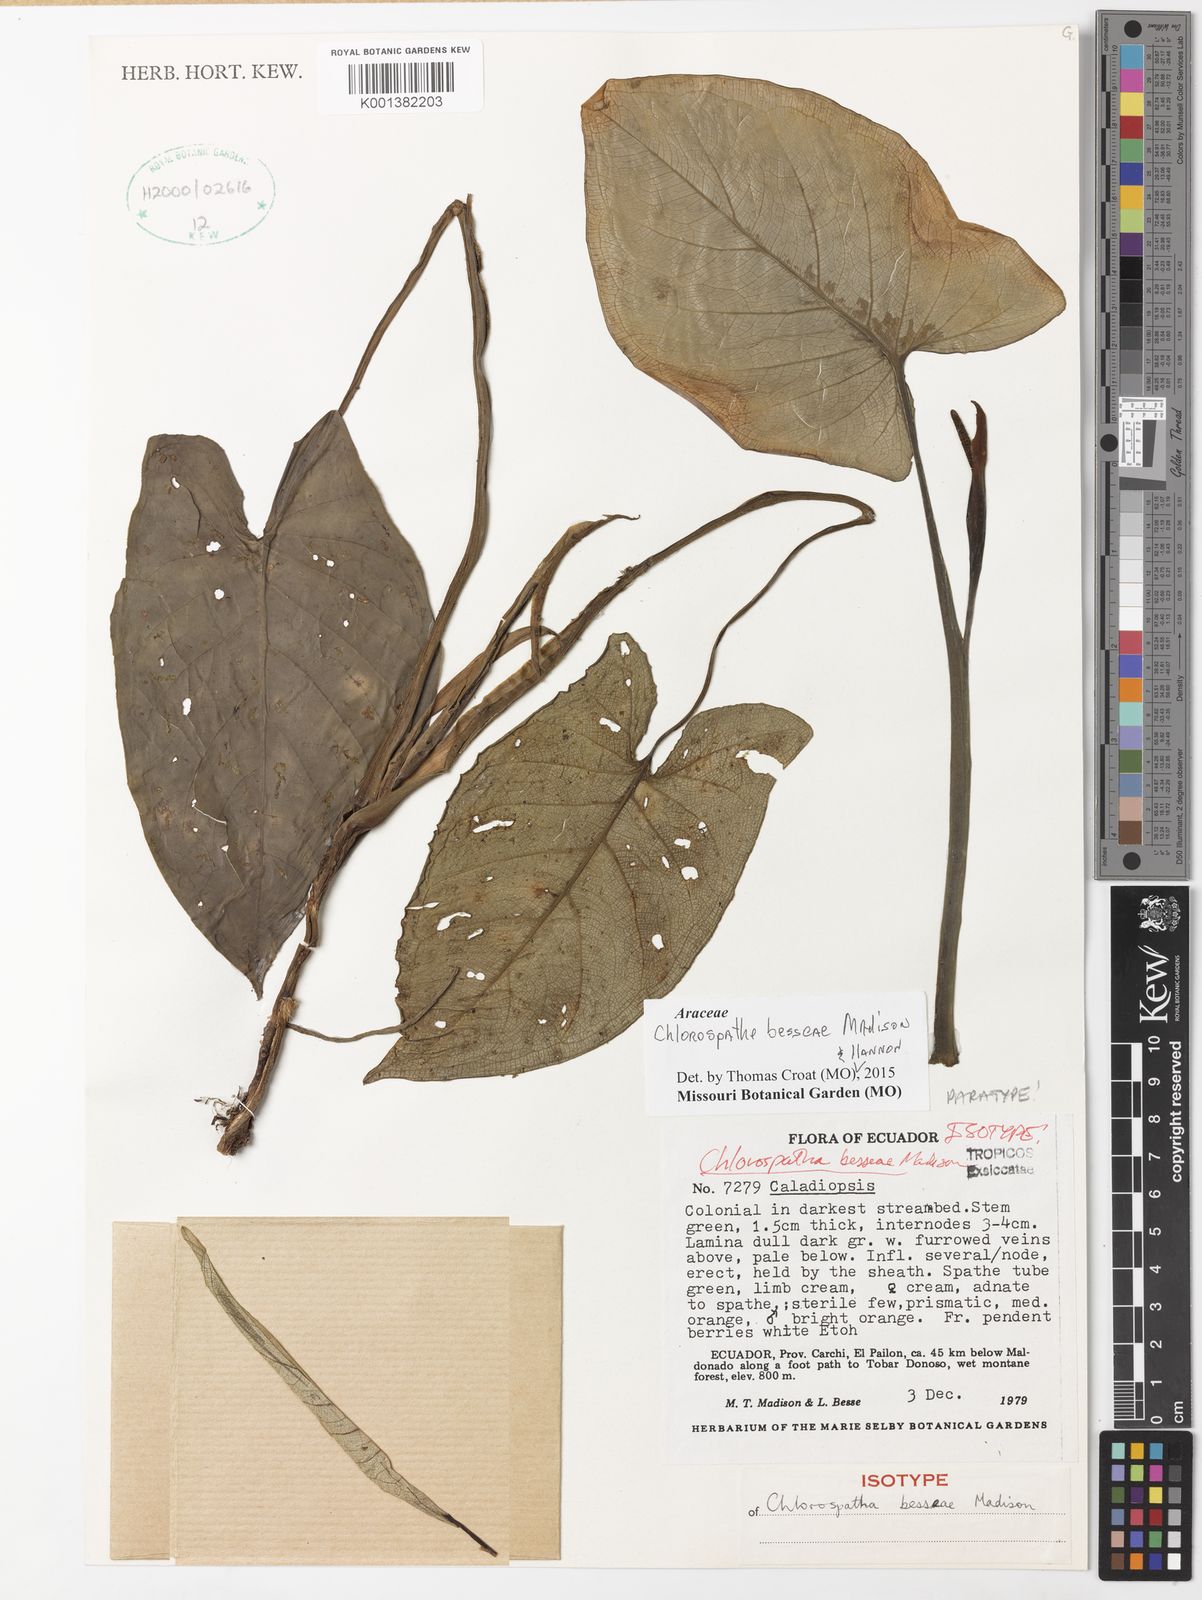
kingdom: Plantae
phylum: Tracheophyta
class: Liliopsida
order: Alismatales
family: Araceae
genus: Chlorospatha
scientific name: Chlorospatha besseae
